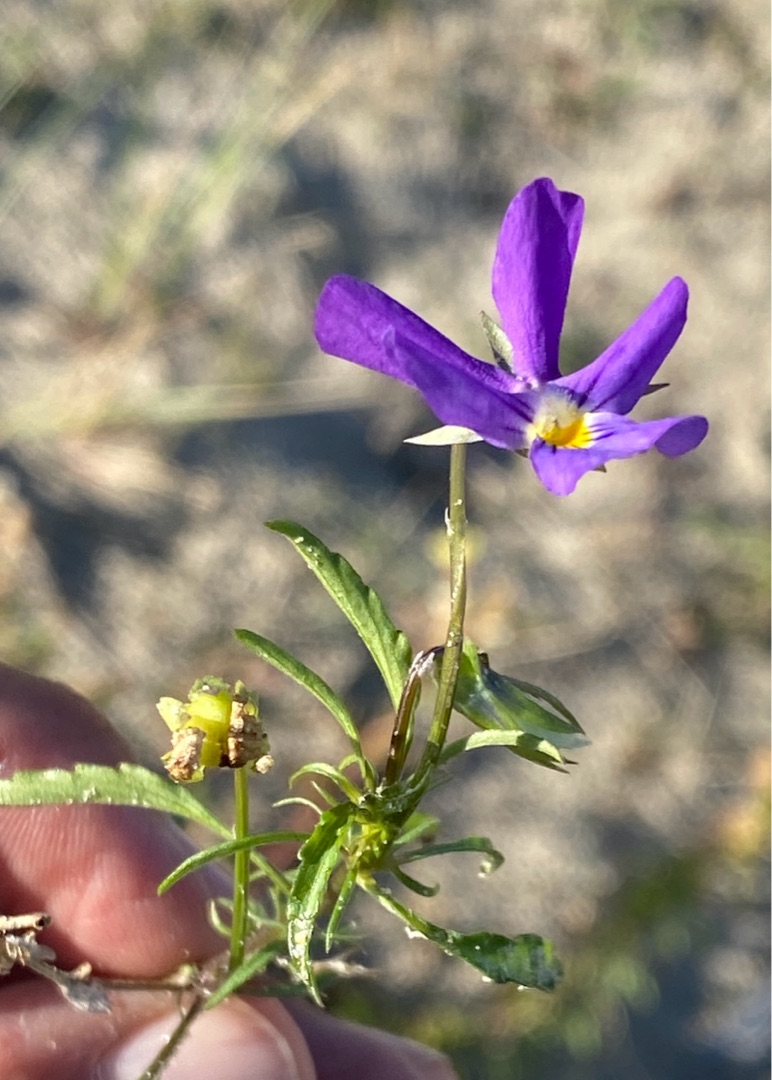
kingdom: Plantae
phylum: Tracheophyta
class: Magnoliopsida
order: Malpighiales
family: Violaceae
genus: Viola
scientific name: Viola tricolor
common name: Klit-stedmoderblomst
